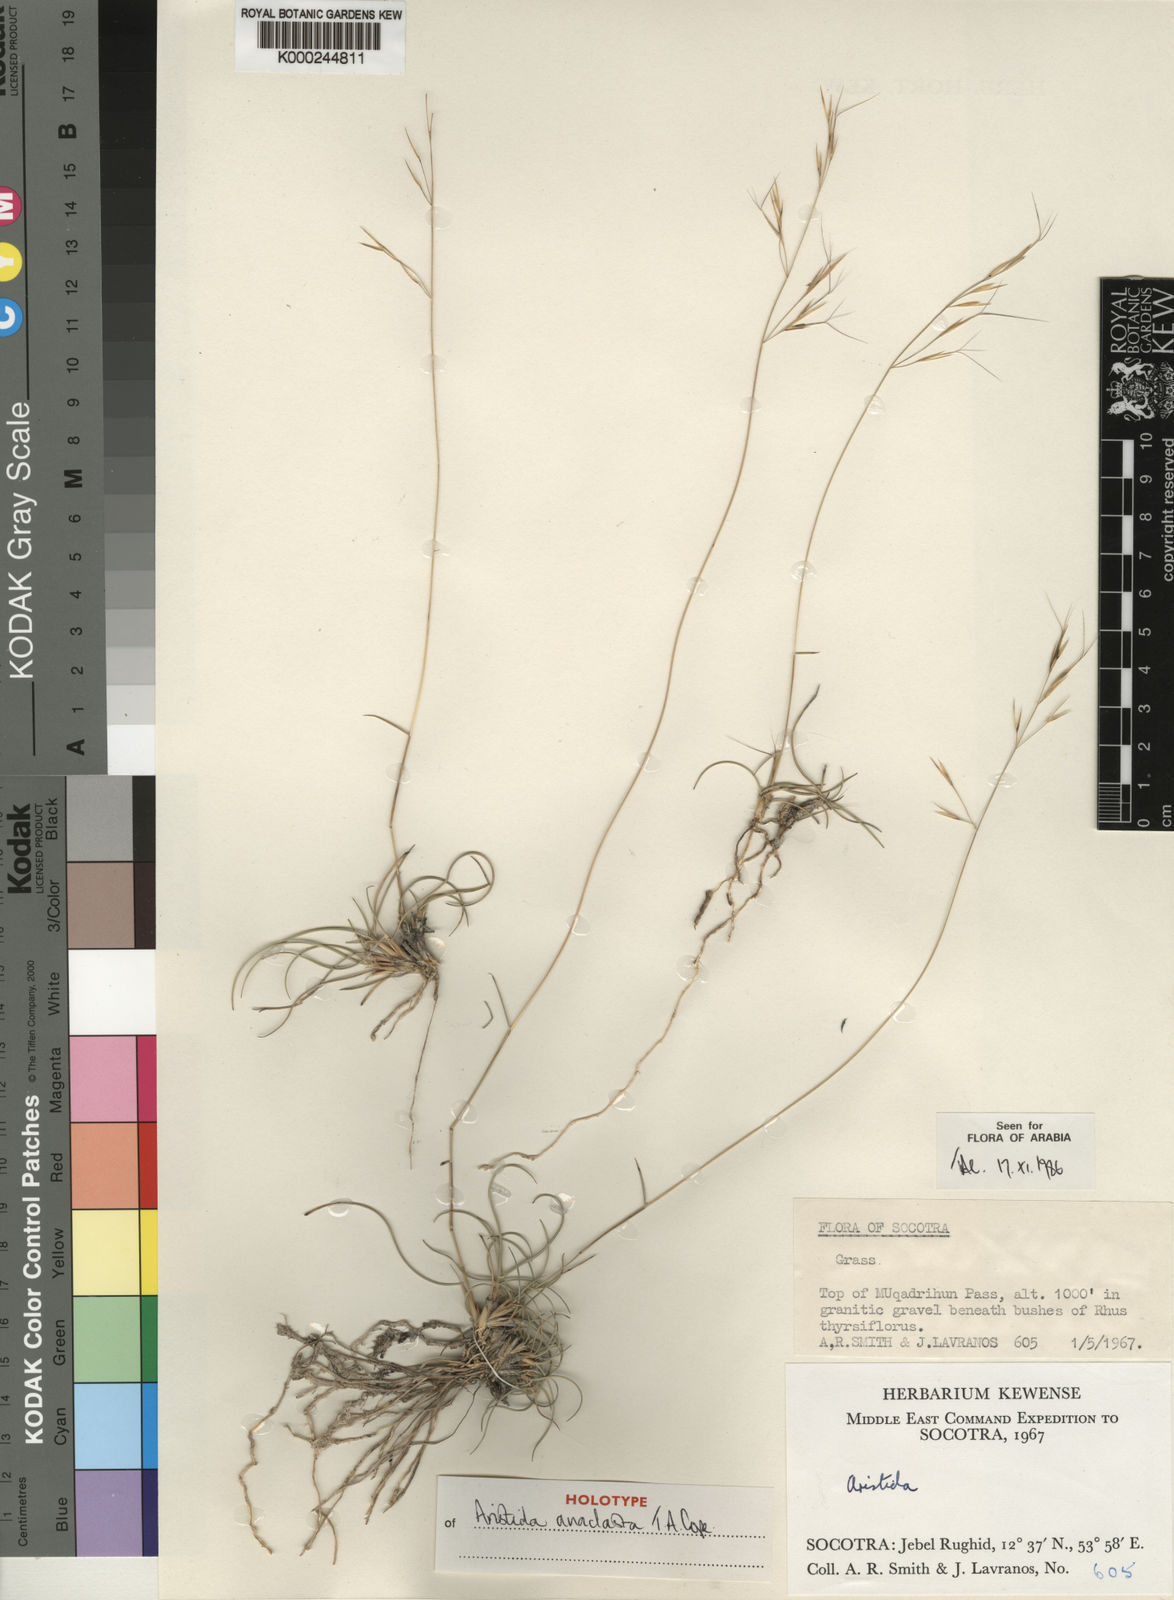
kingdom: Plantae
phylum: Tracheophyta
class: Liliopsida
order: Poales
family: Poaceae
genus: Aristida
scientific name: Aristida anaclasta
